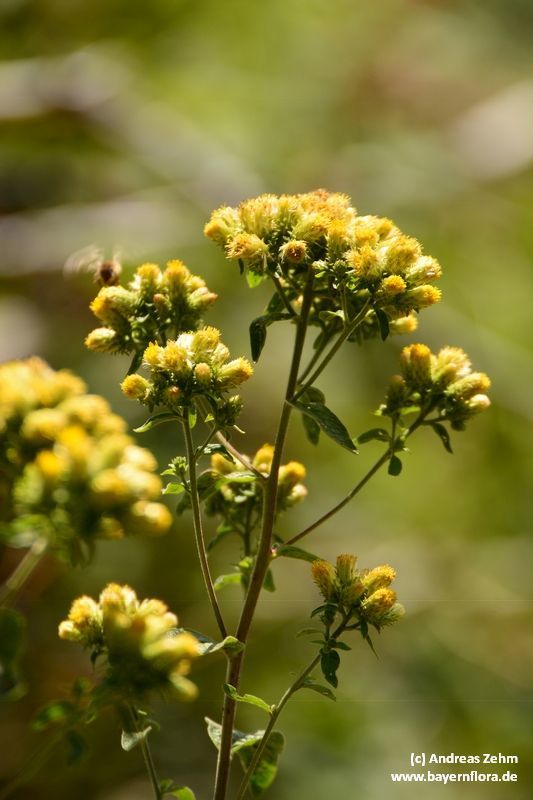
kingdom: Plantae
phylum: Tracheophyta
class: Magnoliopsida
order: Asterales
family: Asteraceae
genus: Pentanema
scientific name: Pentanema squarrosum
